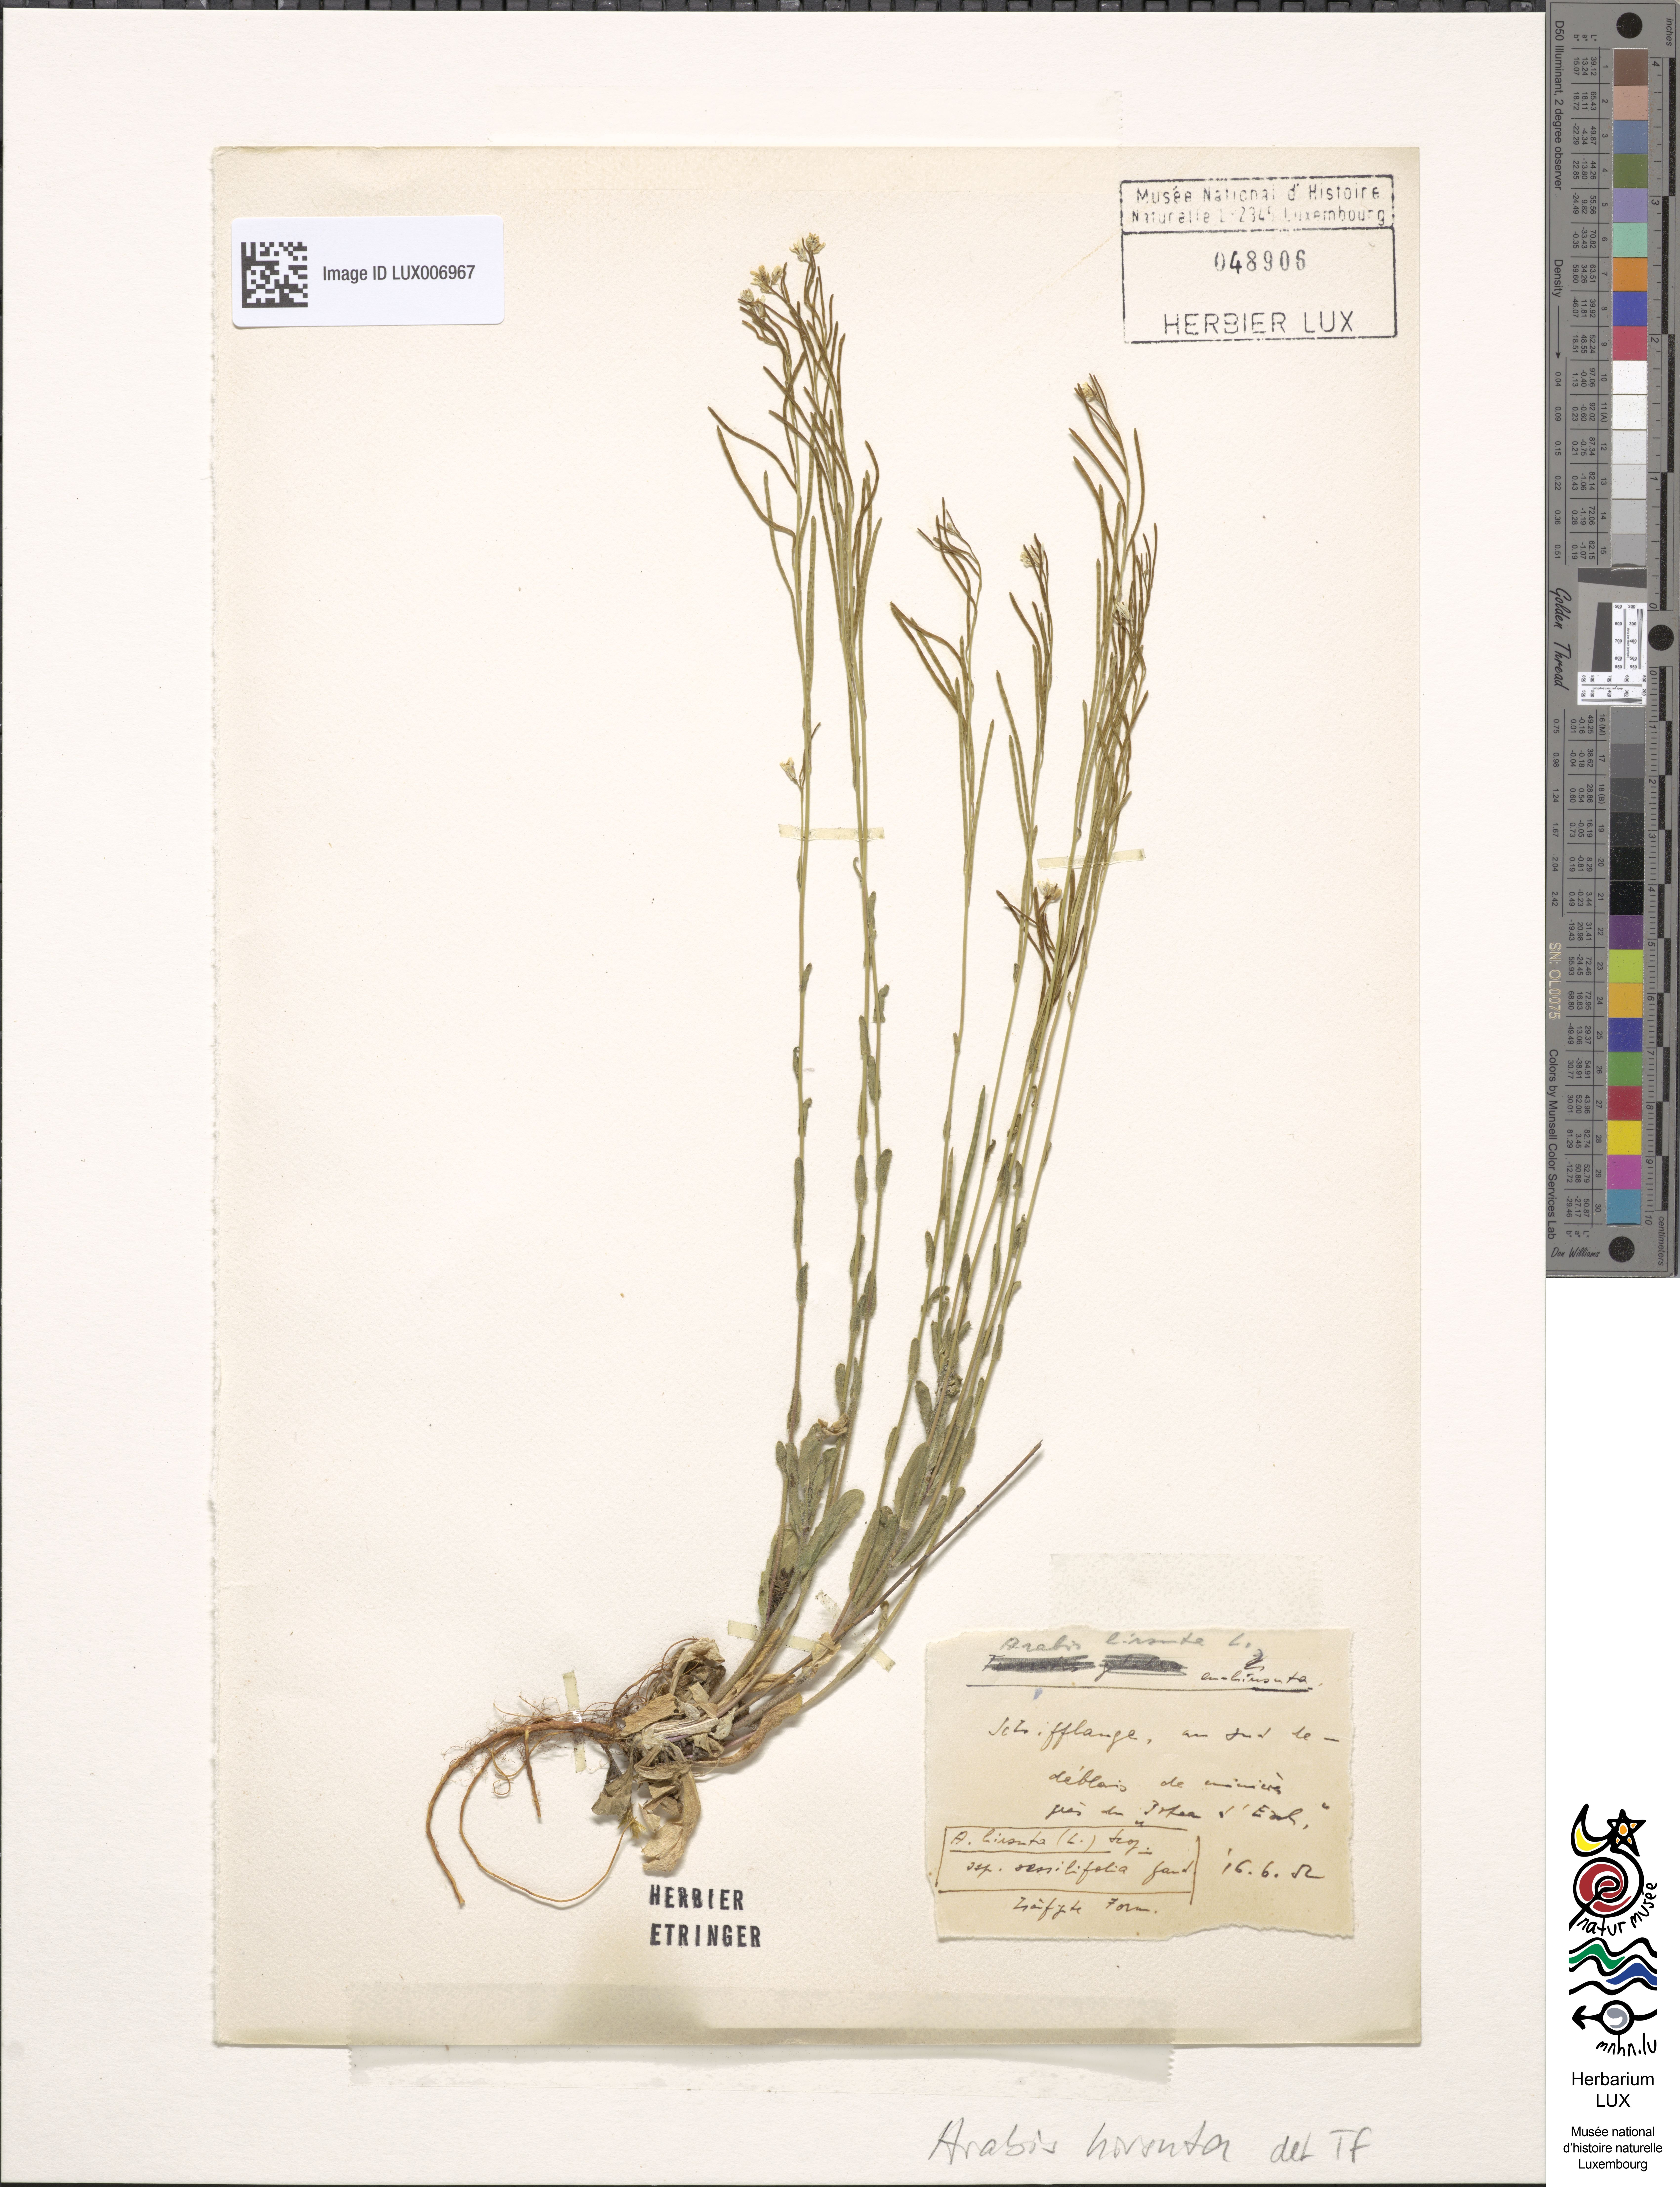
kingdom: Plantae
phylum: Tracheophyta
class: Magnoliopsida
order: Brassicales
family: Brassicaceae
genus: Arabis
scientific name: Arabis hirsuta
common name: Hairy rock-cress
